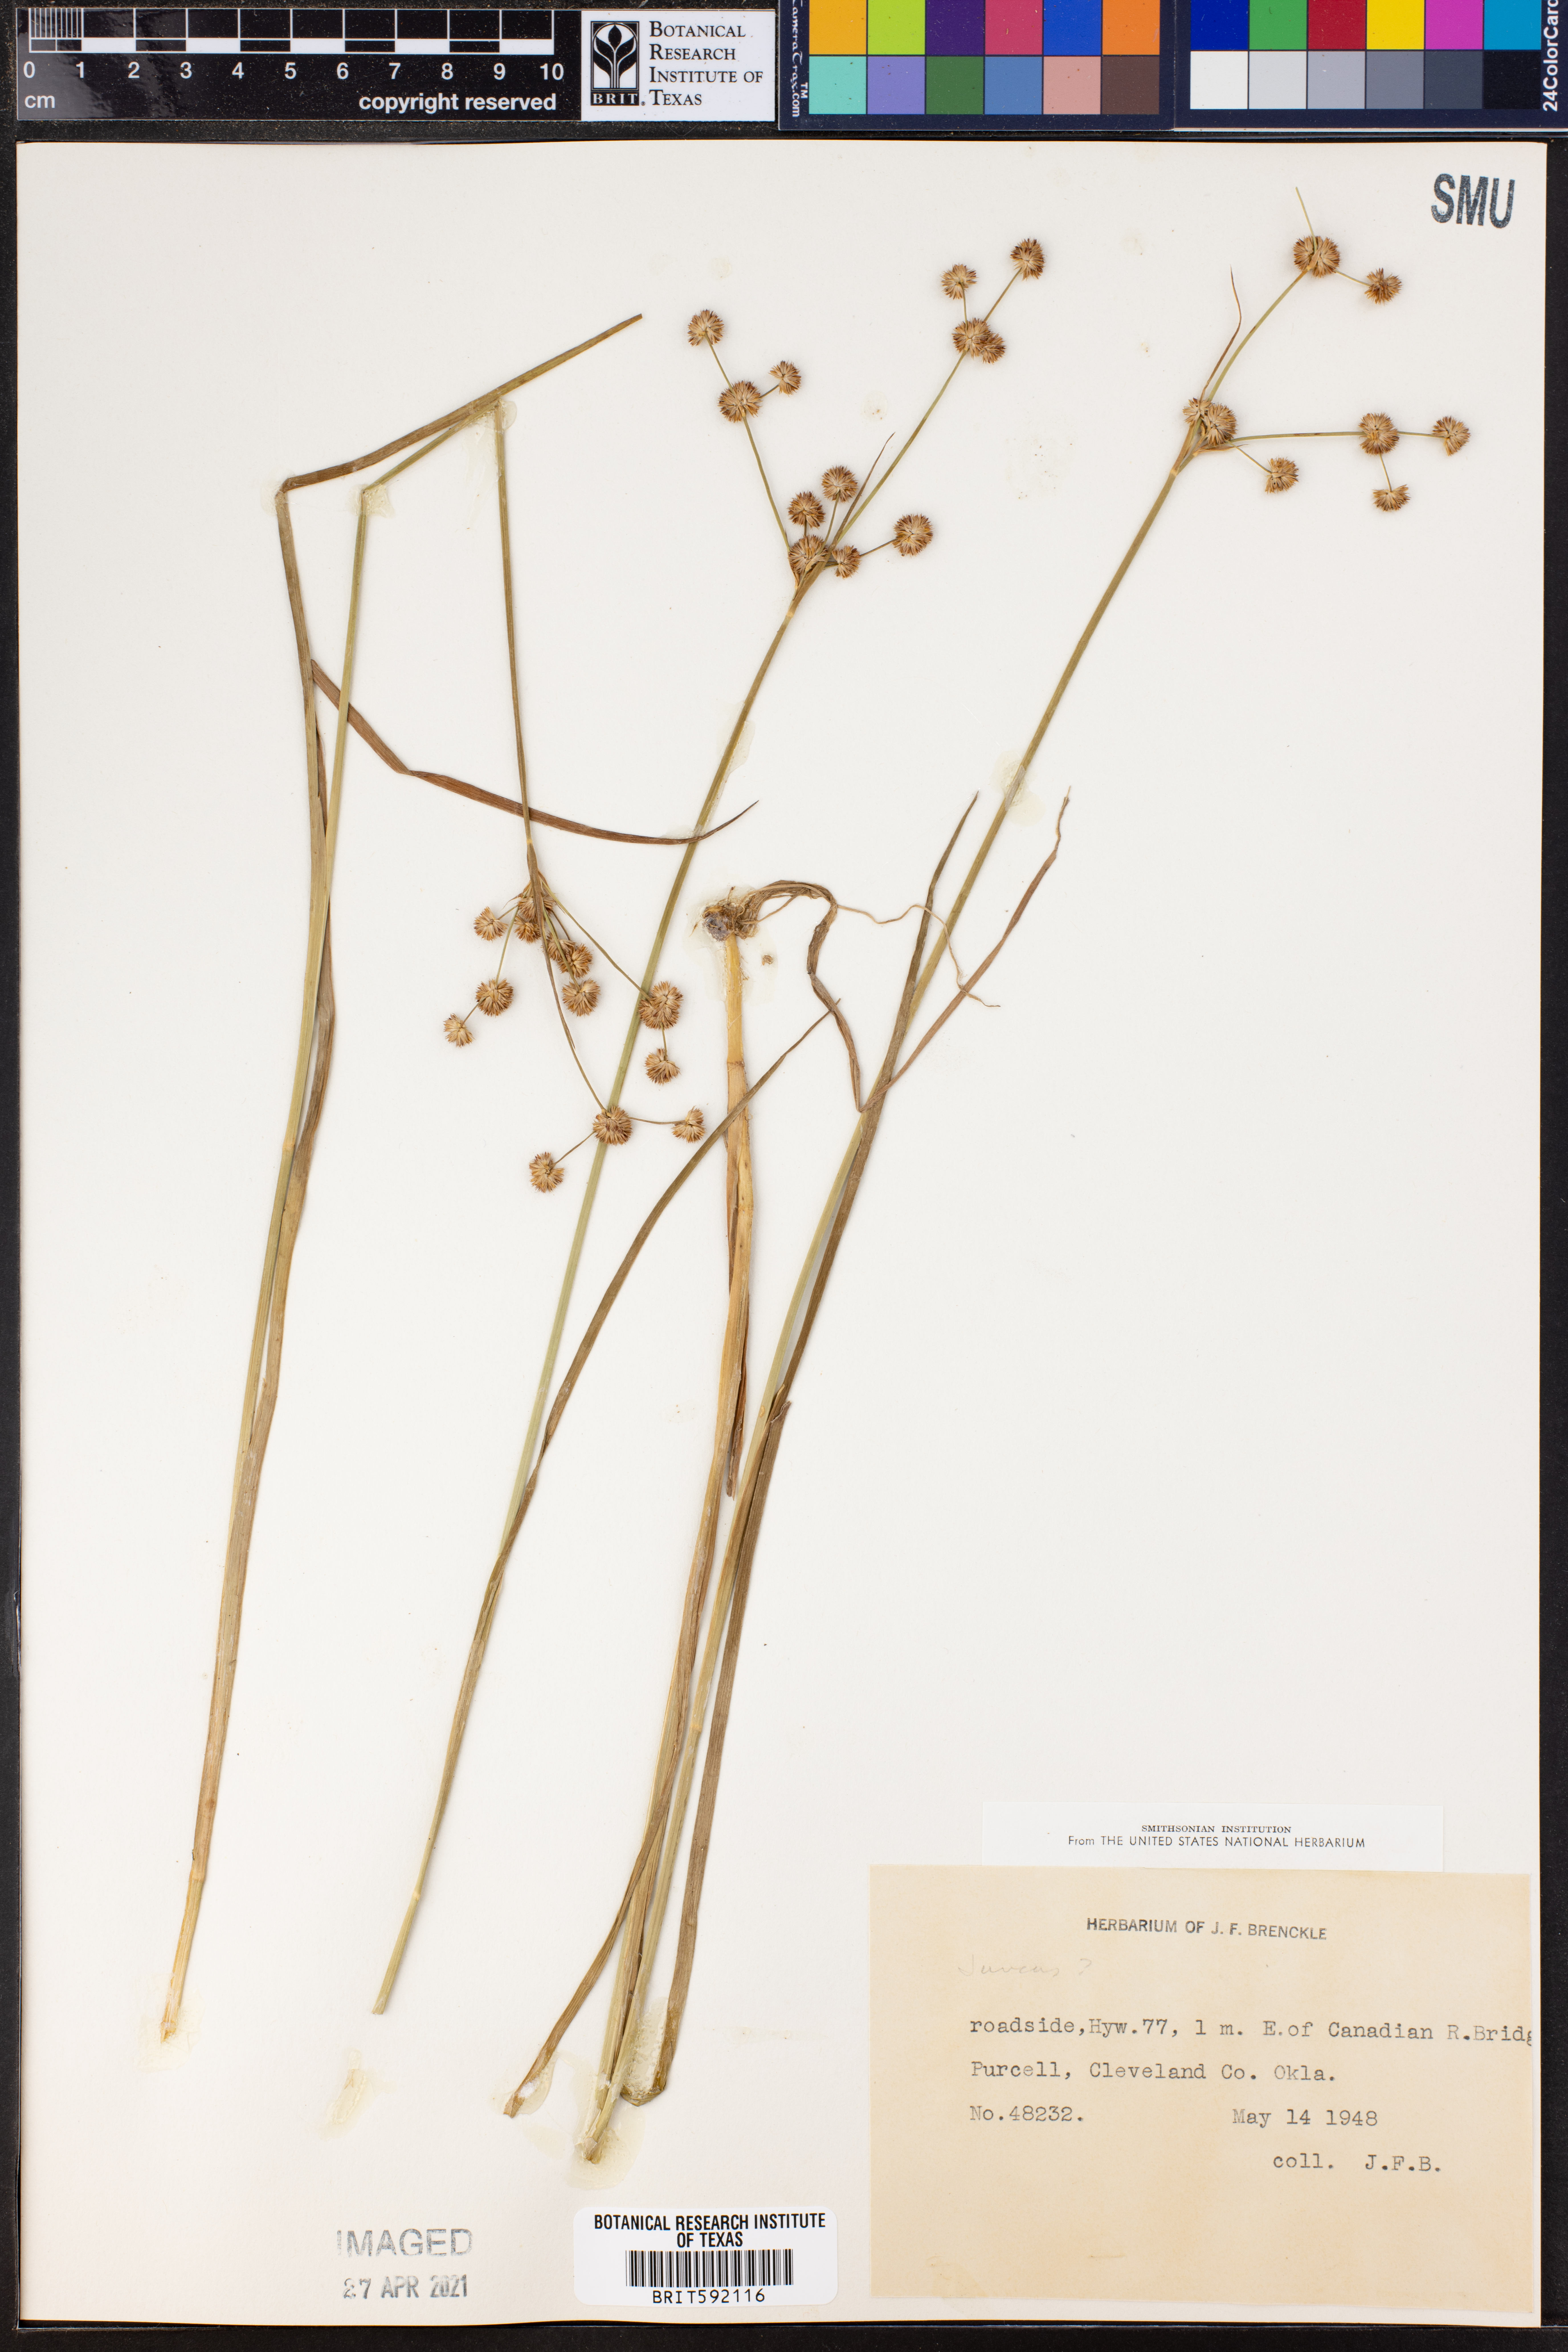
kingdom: Plantae
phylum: Tracheophyta
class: Liliopsida
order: Poales
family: Juncaceae
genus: Juncus
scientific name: Juncus
